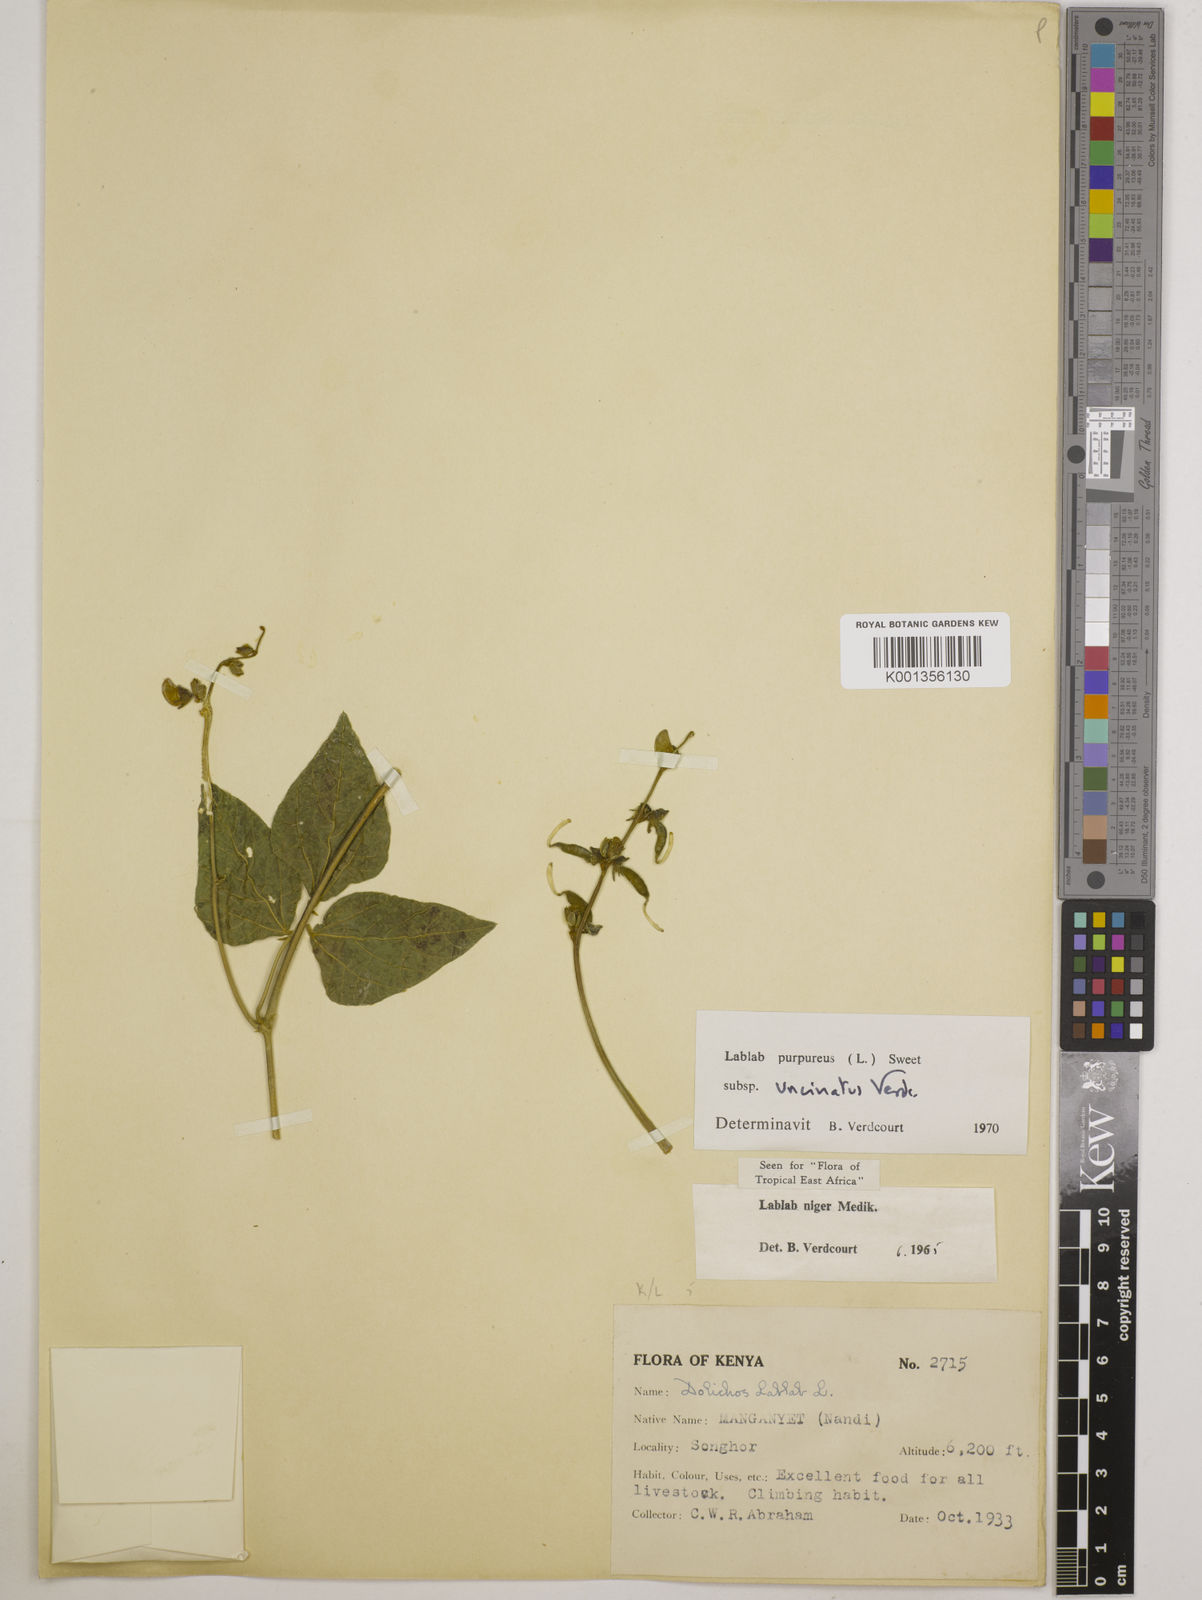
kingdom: Plantae
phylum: Tracheophyta
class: Magnoliopsida
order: Fabales
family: Fabaceae
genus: Lablab
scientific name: Lablab purpureus
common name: Lablab-bean
